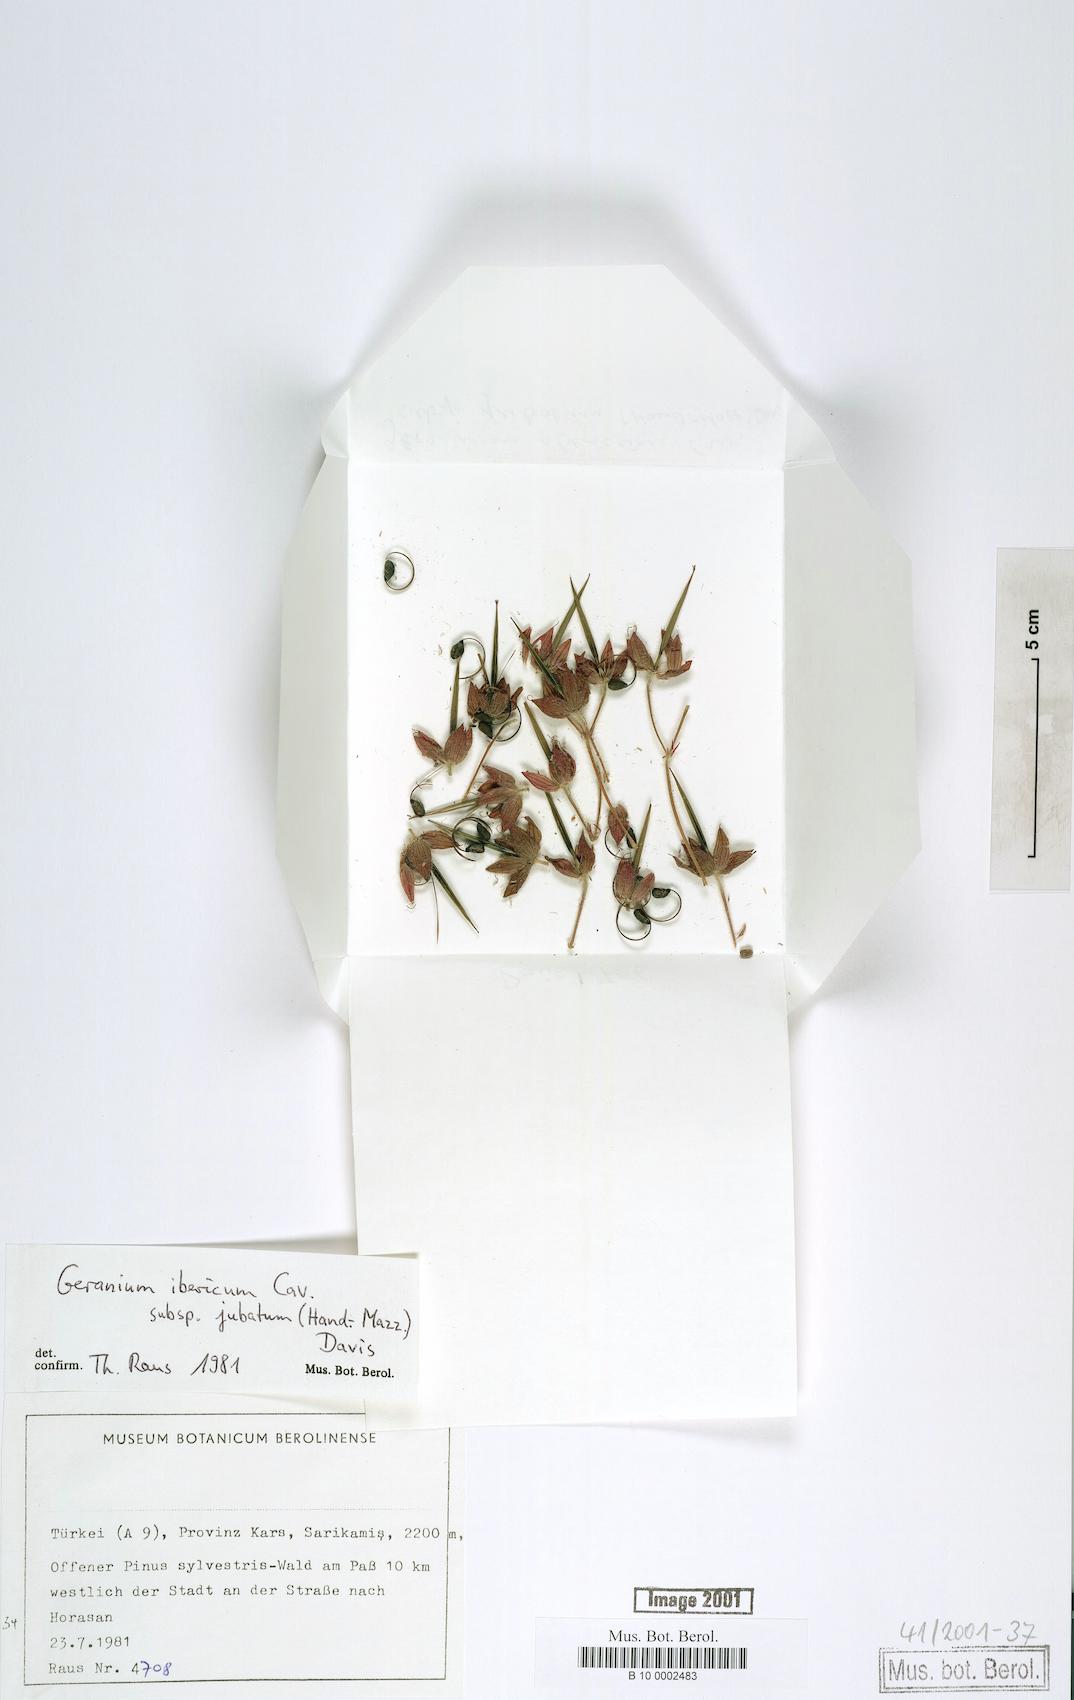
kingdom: Plantae
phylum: Tracheophyta
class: Magnoliopsida
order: Geraniales
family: Geraniaceae
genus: Geranium
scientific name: Geranium ibericum
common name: Caucasian crane's-bill
